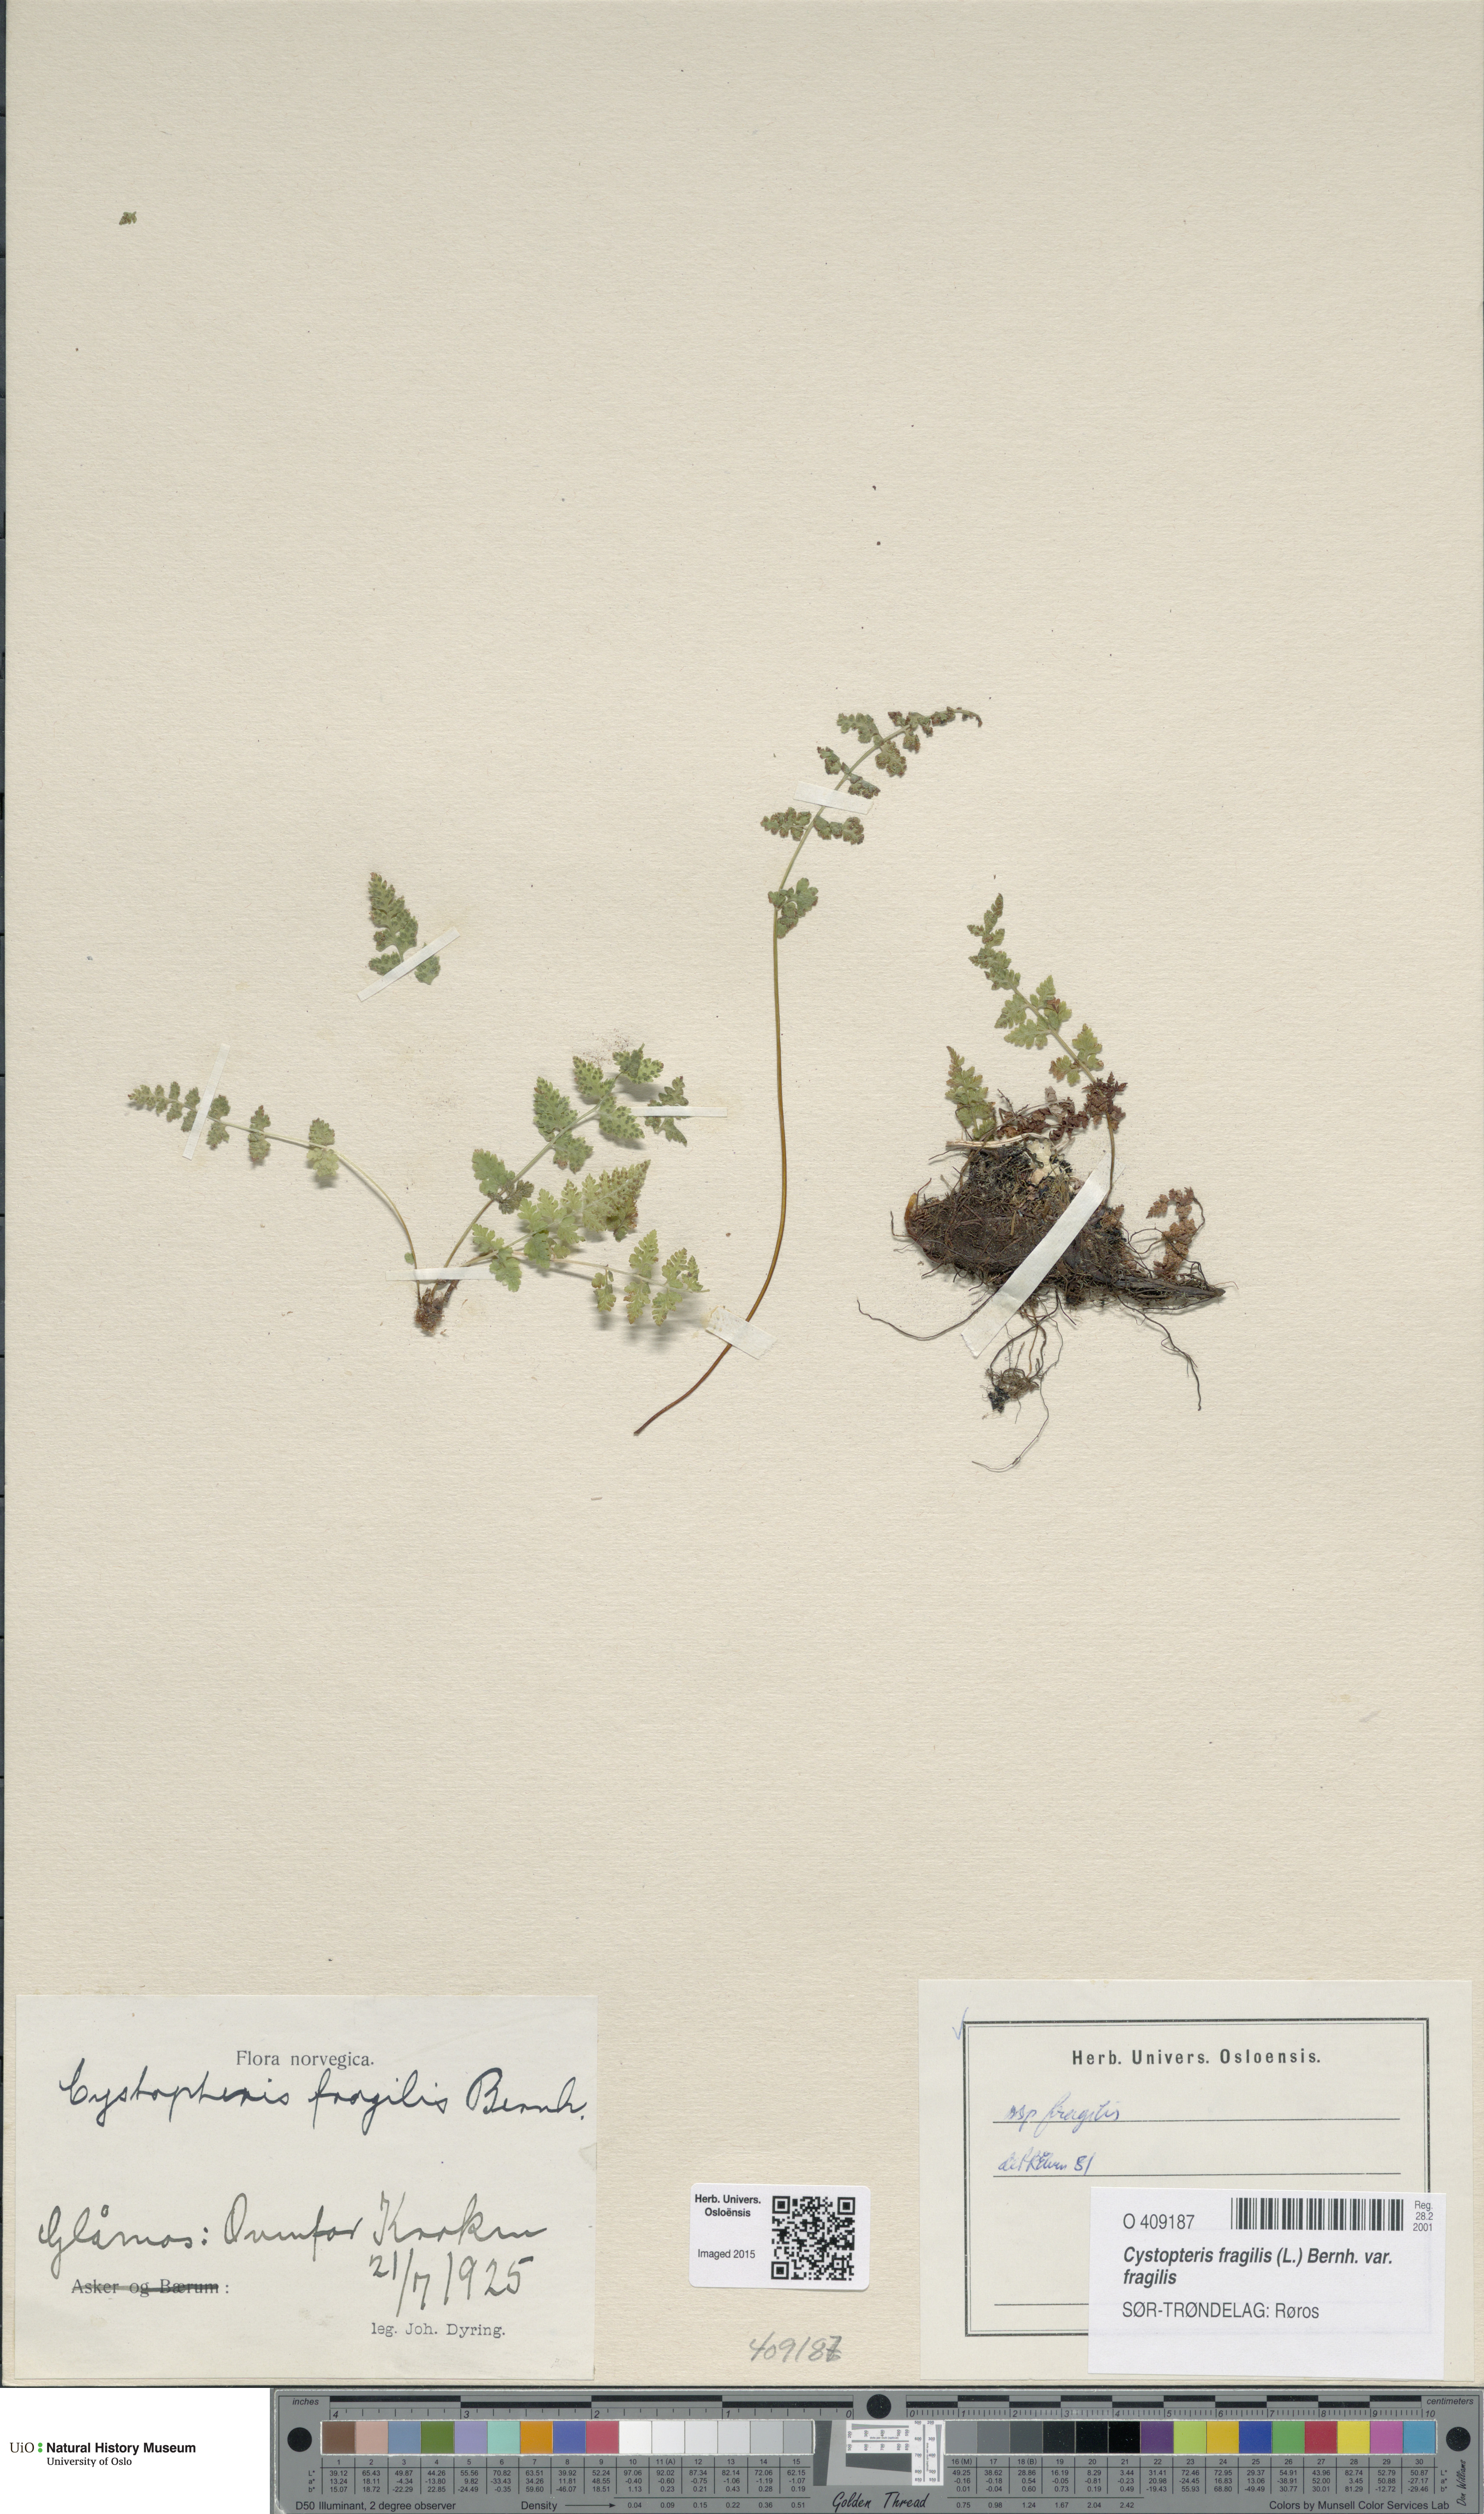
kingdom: Plantae
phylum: Tracheophyta
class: Polypodiopsida
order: Polypodiales
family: Cystopteridaceae
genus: Cystopteris
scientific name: Cystopteris fragilis
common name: Brittle bladder fern
